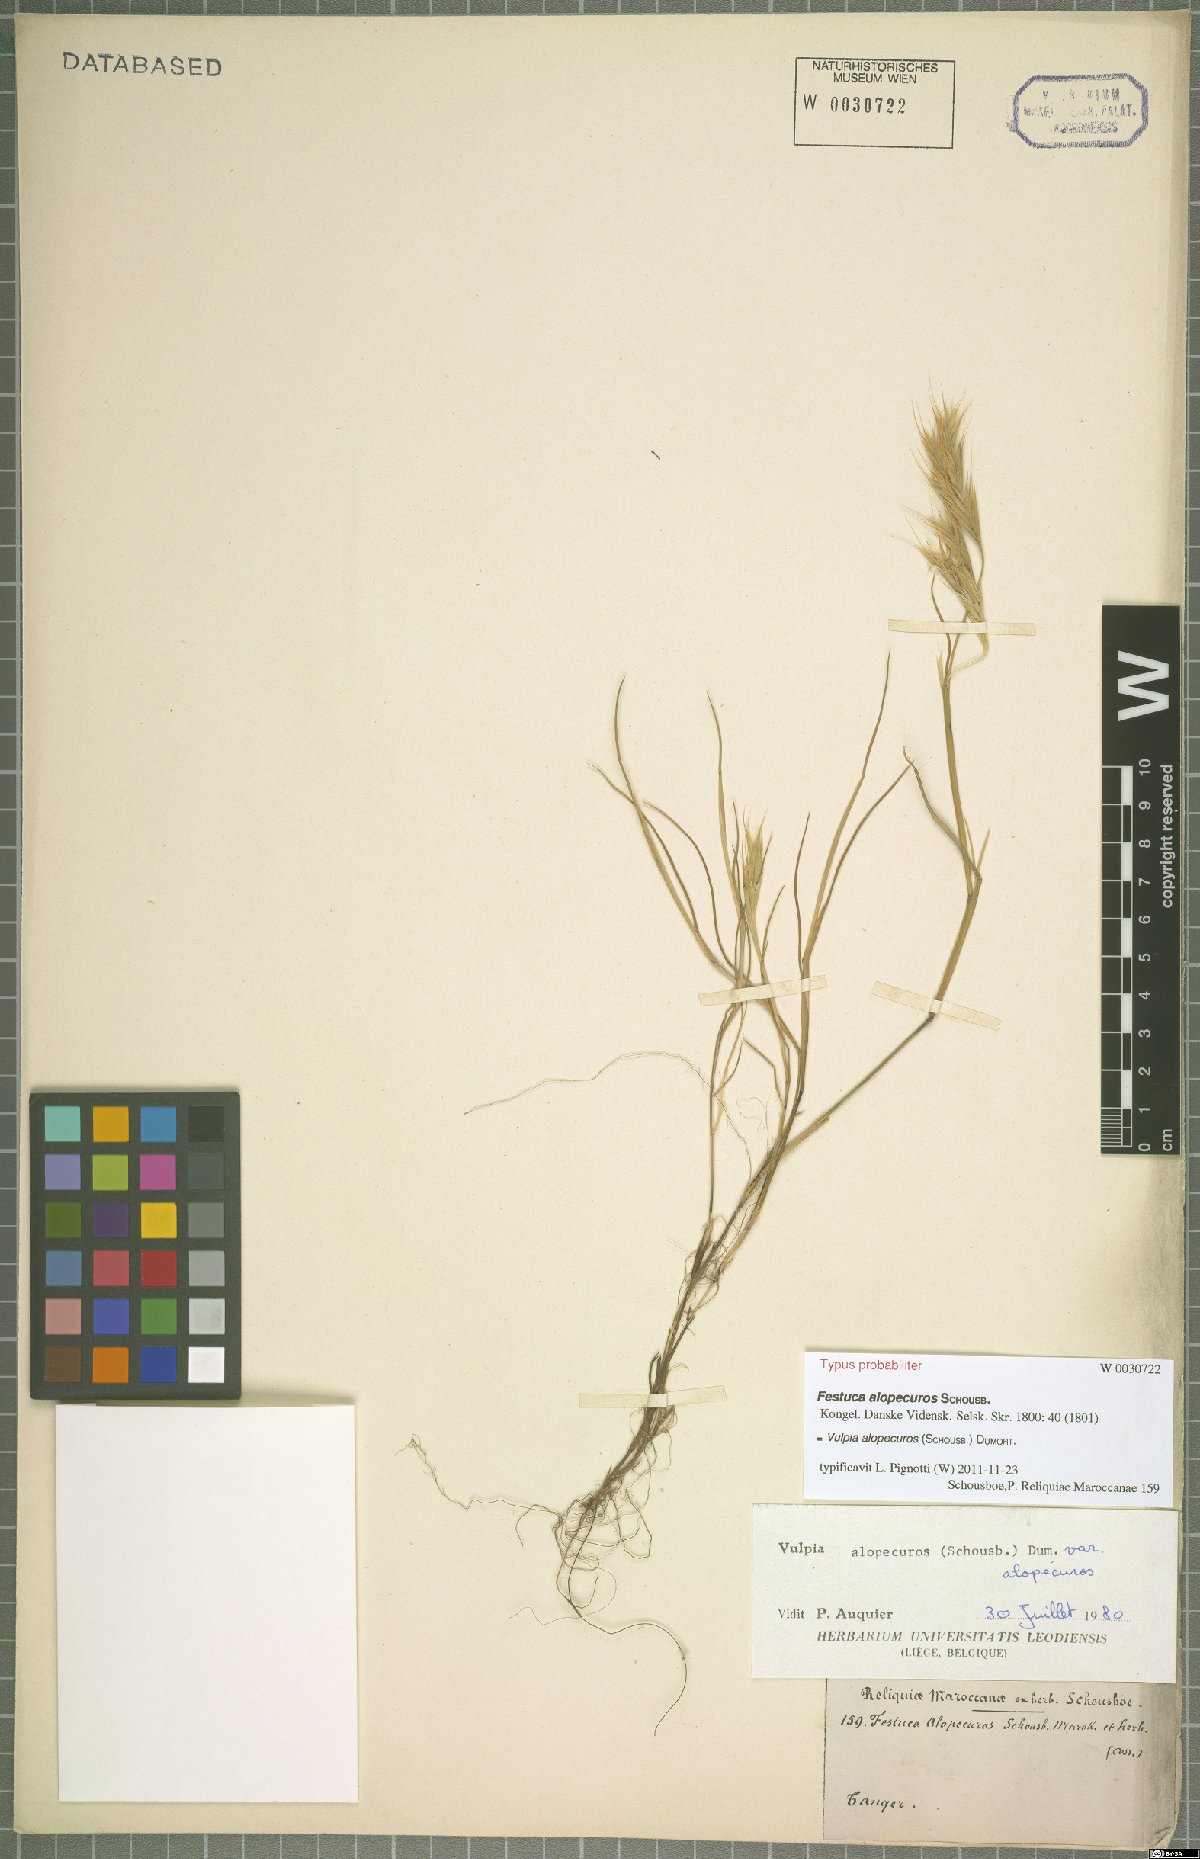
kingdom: Plantae
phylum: Tracheophyta
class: Liliopsida
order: Poales
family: Poaceae
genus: Festuca
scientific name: Festuca alopecuros
